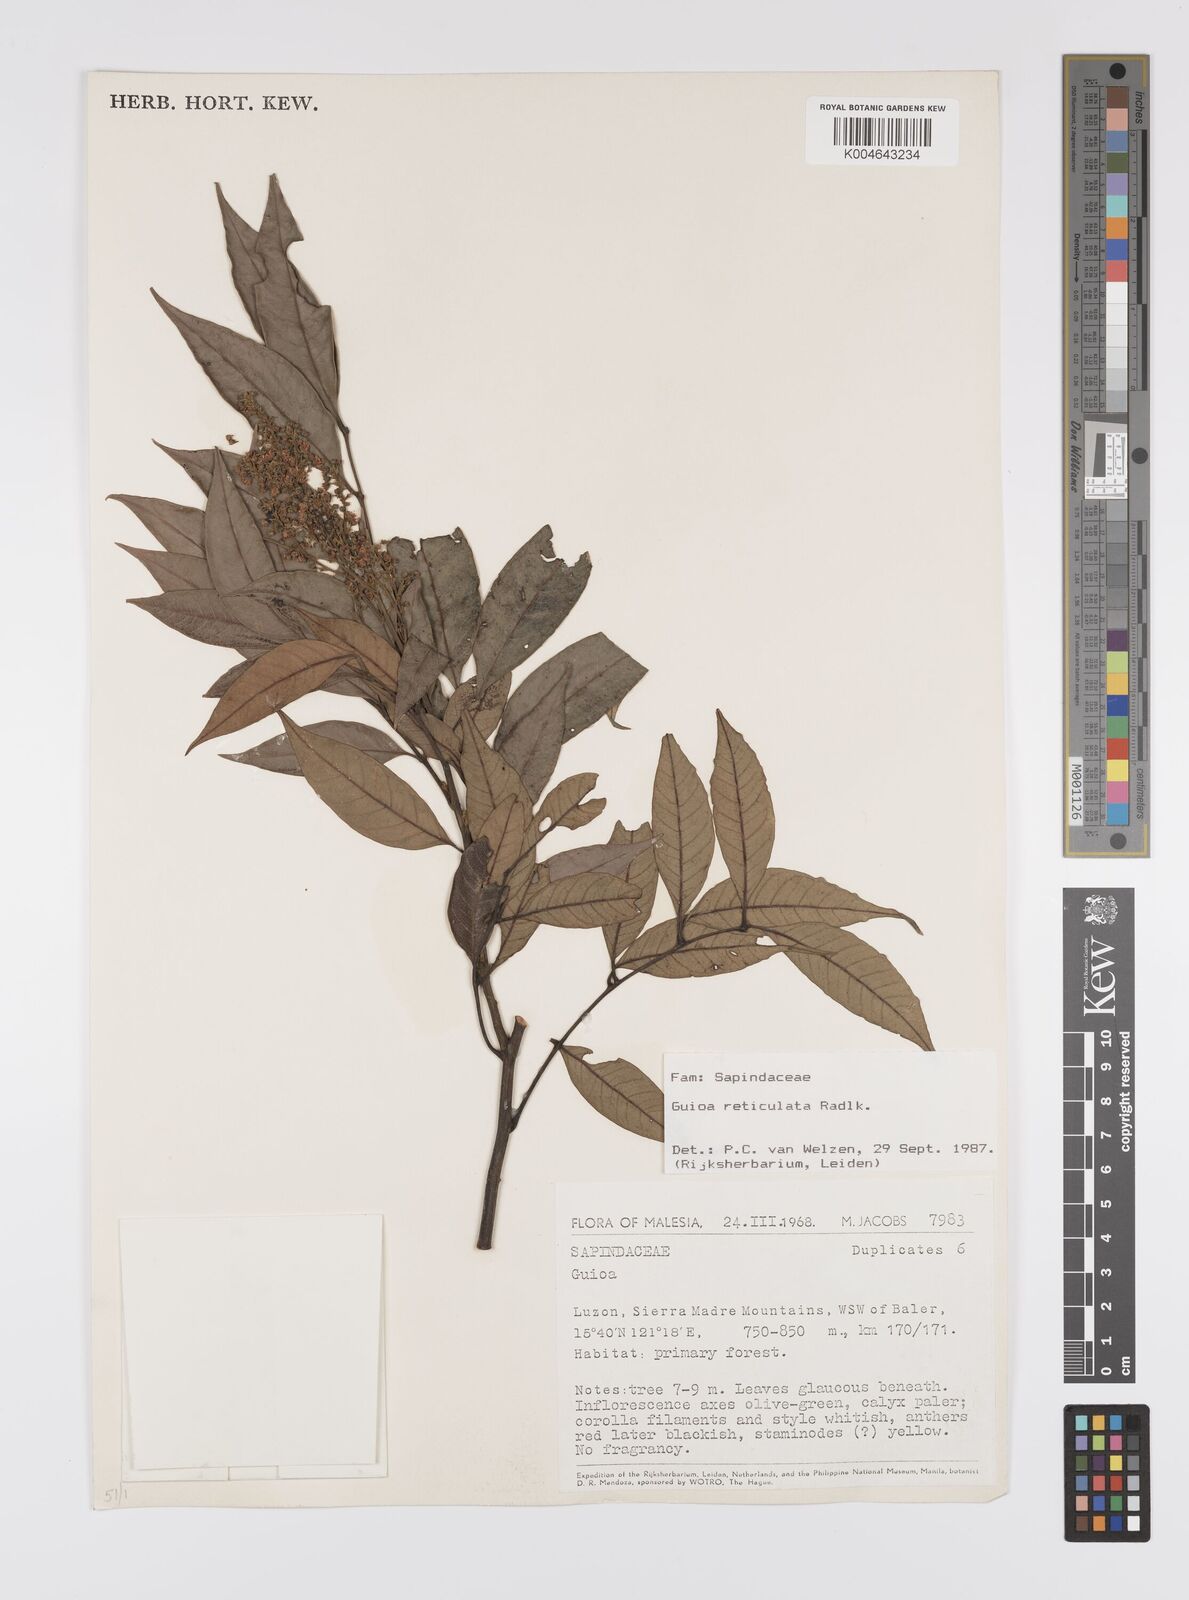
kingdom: Plantae
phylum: Tracheophyta
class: Magnoliopsida
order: Sapindales
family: Sapindaceae
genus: Guioa
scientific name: Guioa reticulata
